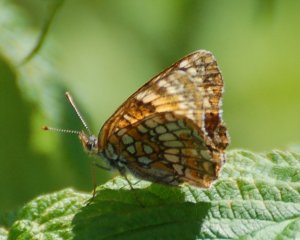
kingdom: Animalia
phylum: Arthropoda
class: Insecta
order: Lepidoptera
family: Nymphalidae
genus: Chlosyne
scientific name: Chlosyne harrisii
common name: Harris's Checkerspot
